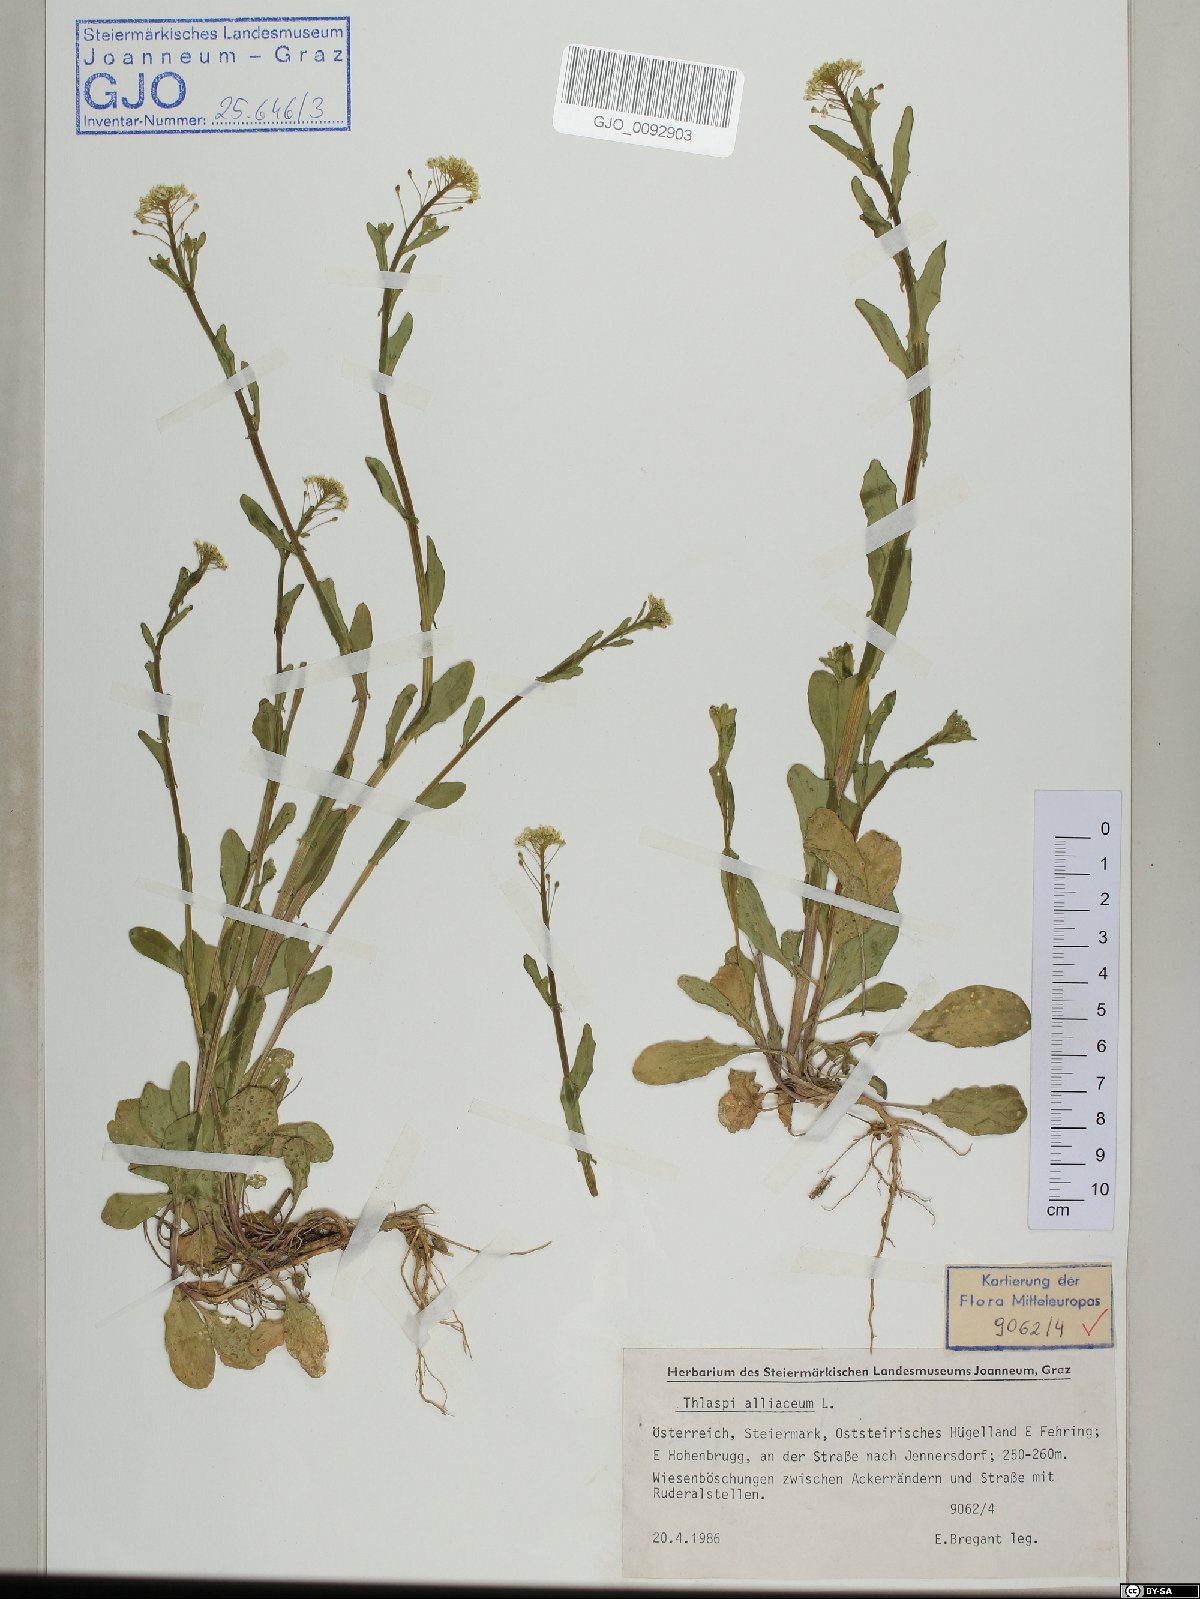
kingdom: Plantae
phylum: Tracheophyta
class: Magnoliopsida
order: Brassicales
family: Brassicaceae
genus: Mummenhoffia
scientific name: Mummenhoffia alliacea
